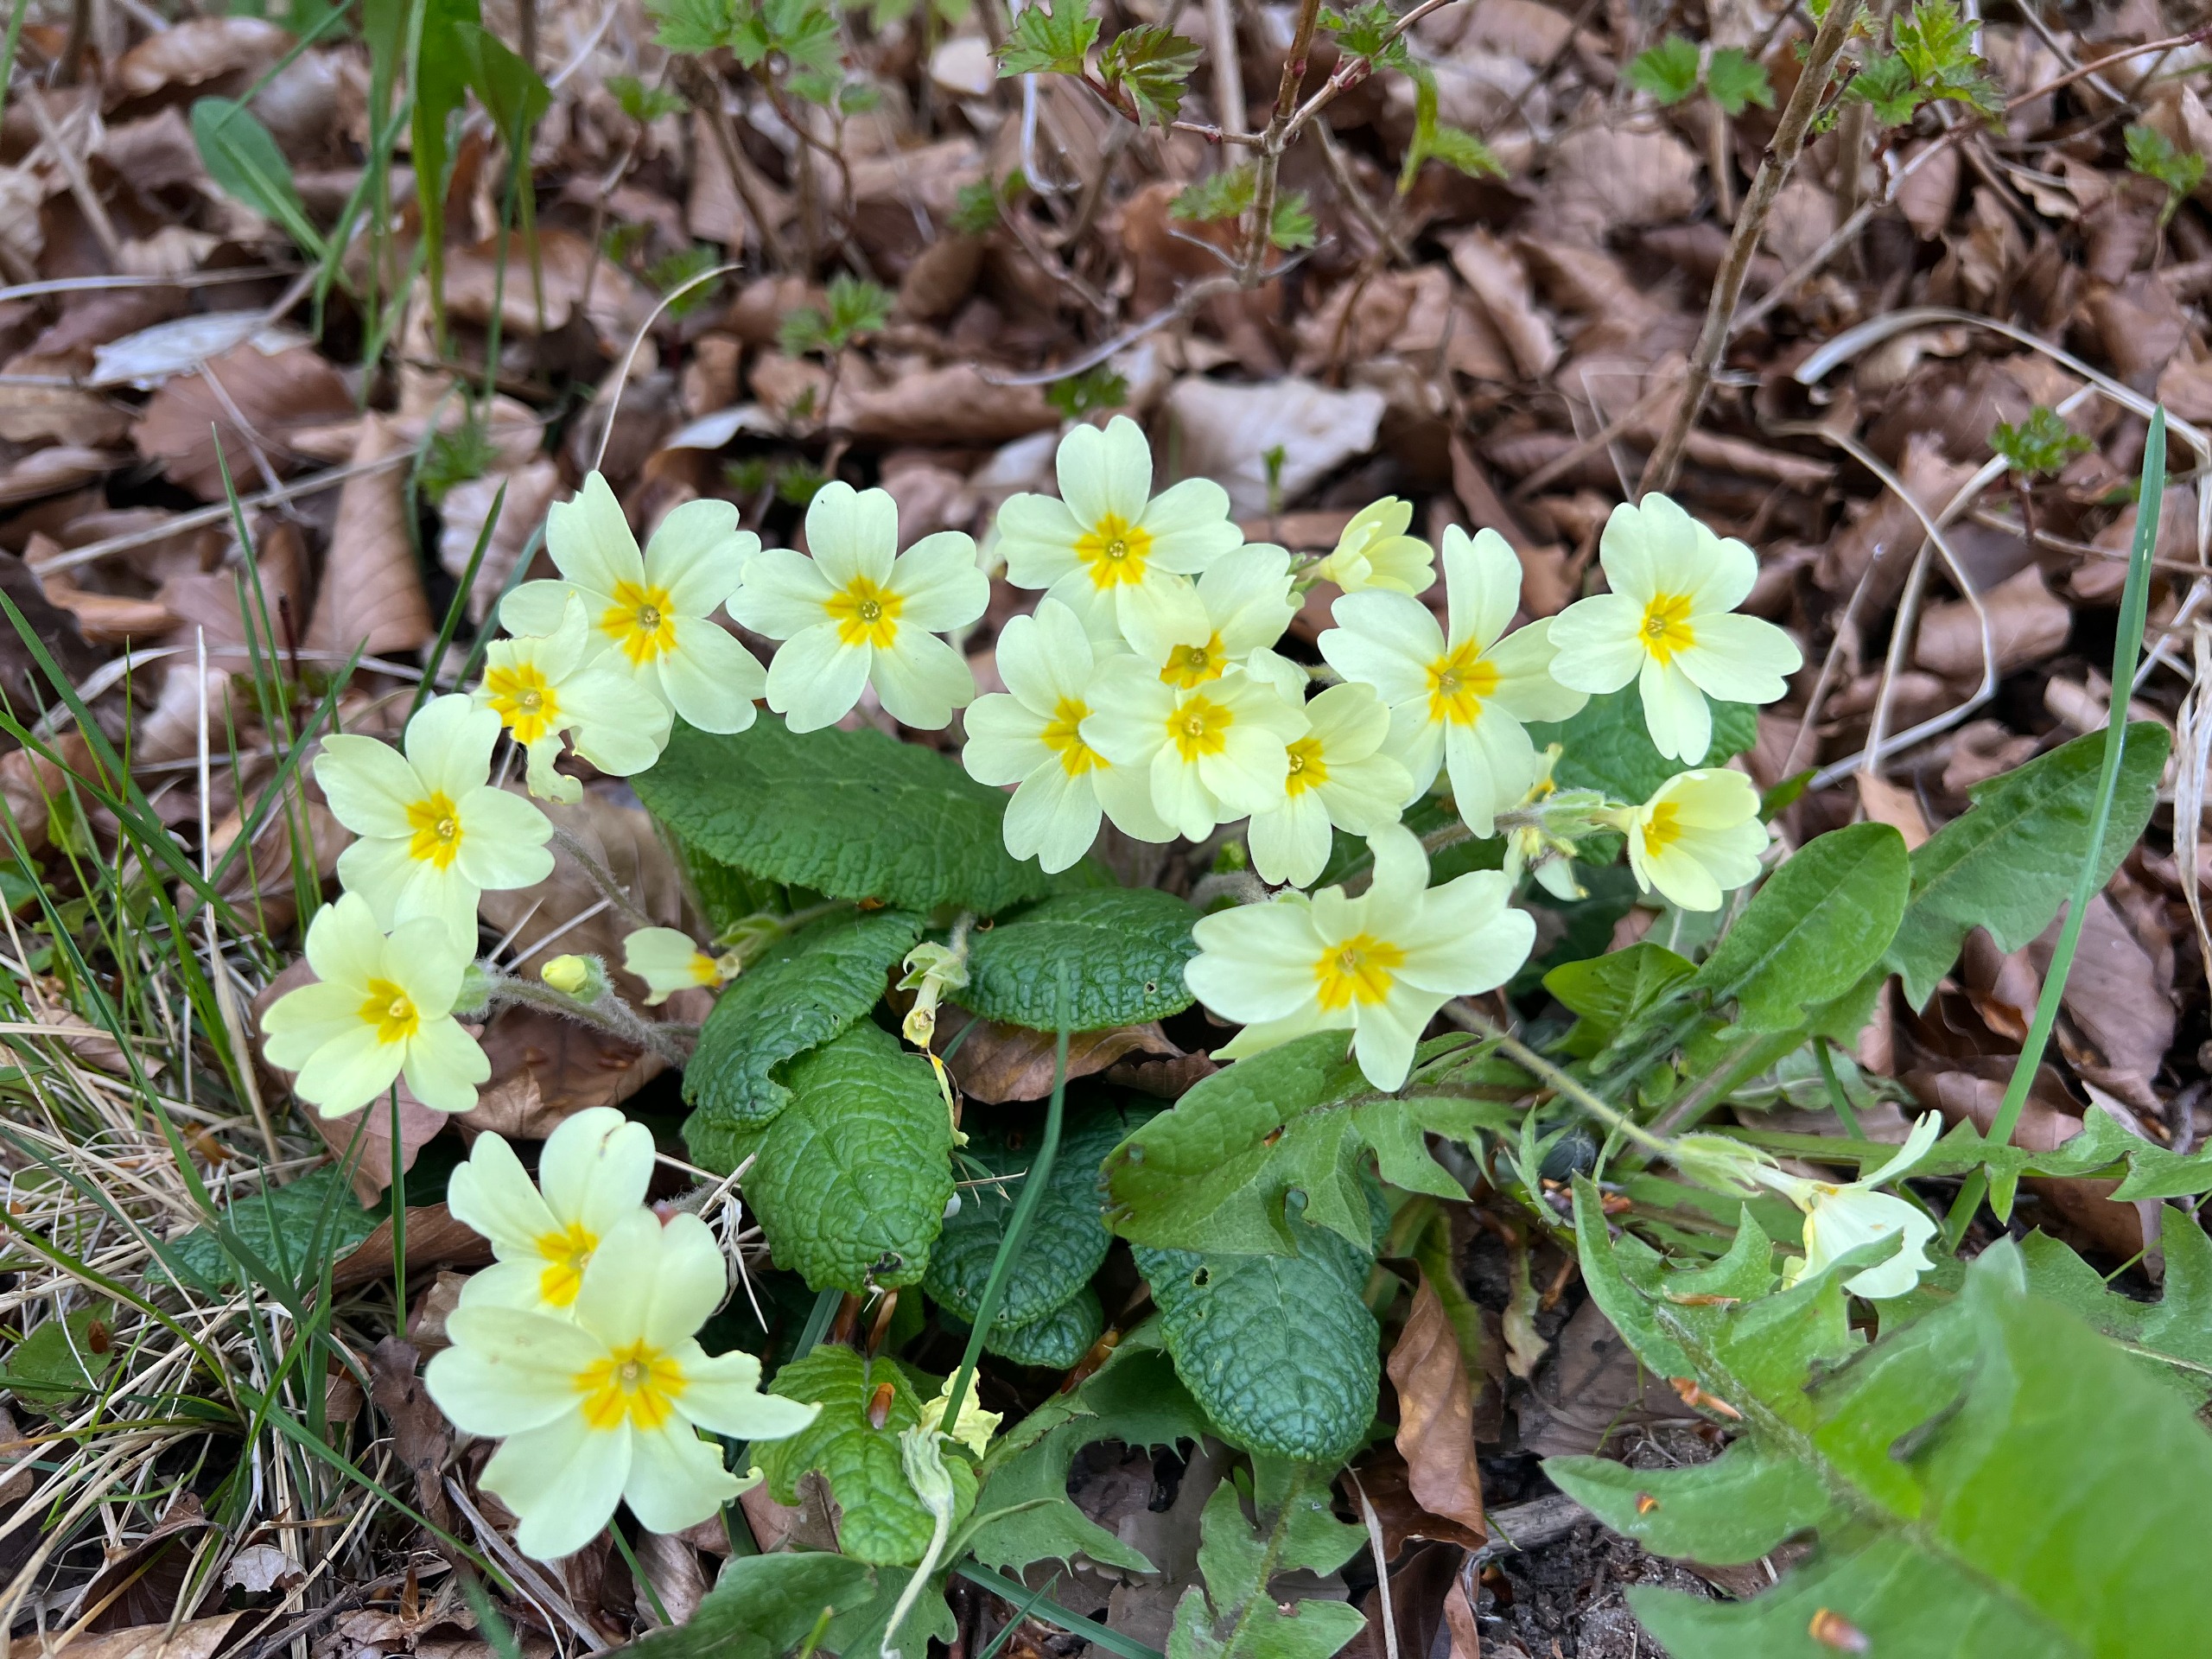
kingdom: Plantae
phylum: Tracheophyta
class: Magnoliopsida
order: Ericales
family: Primulaceae
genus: Primula
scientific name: Primula vulgaris
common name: Storblomstret kodriver
